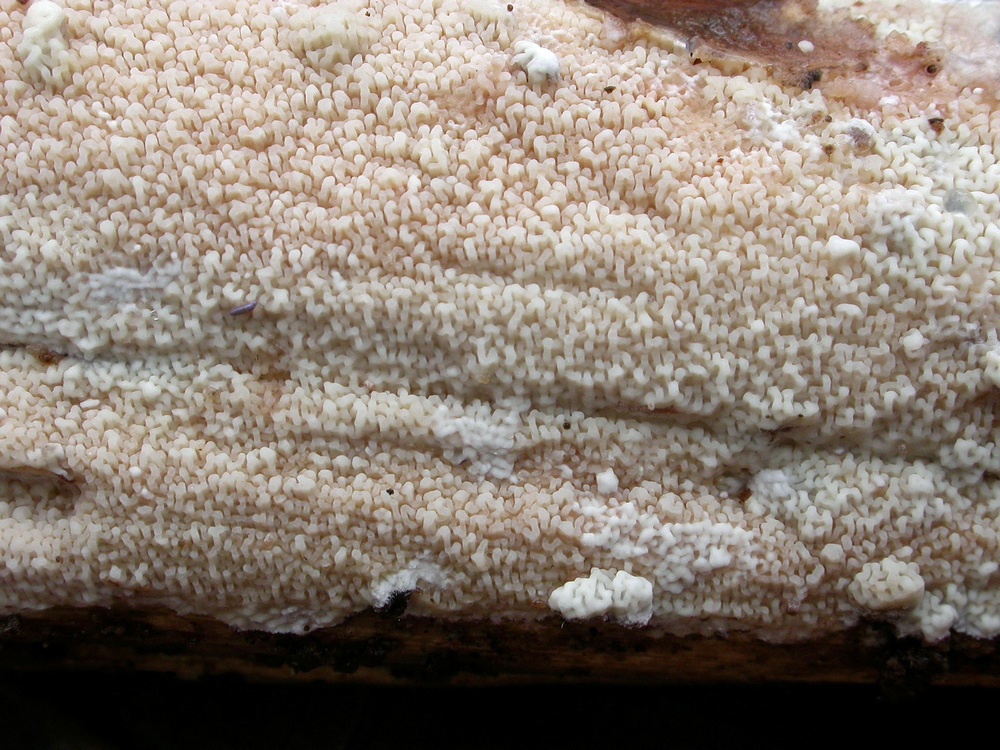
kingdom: Fungi
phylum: Basidiomycota
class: Agaricomycetes
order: Polyporales
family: Meruliaceae
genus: Phlebia
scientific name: Phlebia rufa
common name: ege-åresvamp
